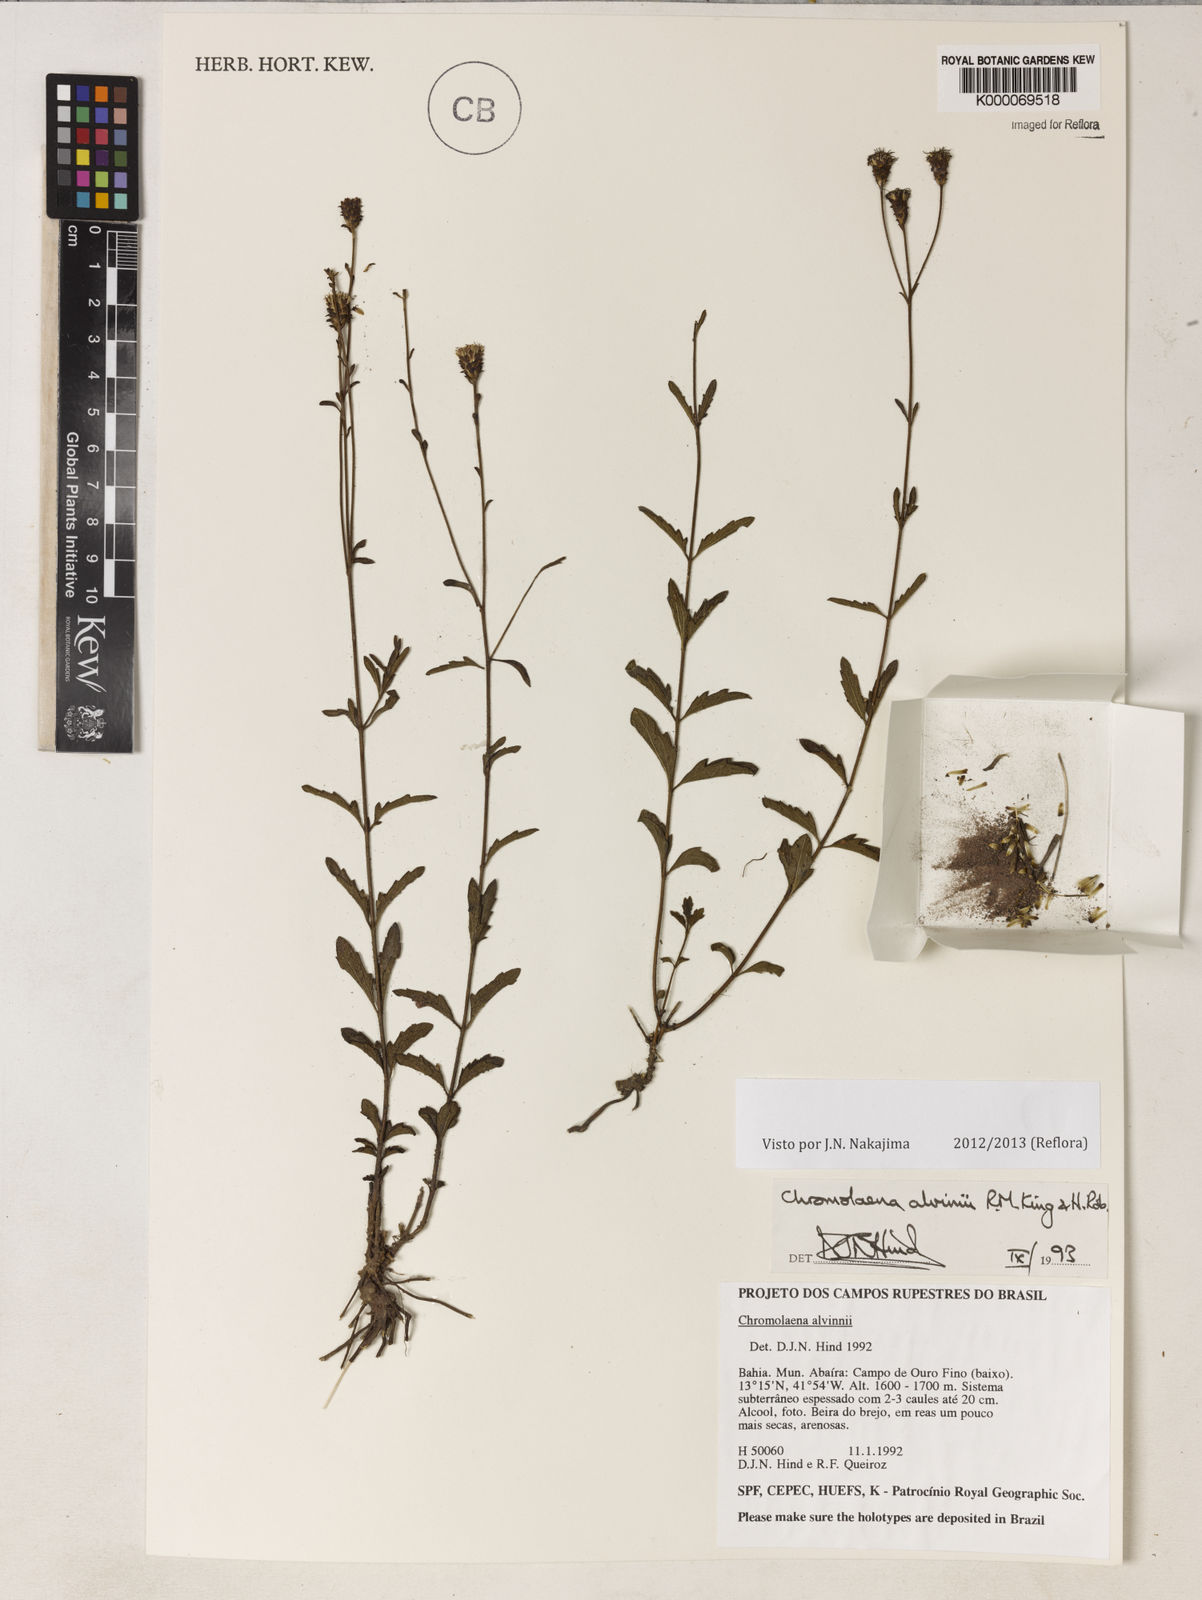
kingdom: Plantae
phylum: Tracheophyta
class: Magnoliopsida
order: Asterales
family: Asteraceae
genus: Chromolaena
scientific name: Chromolaena alvimii
